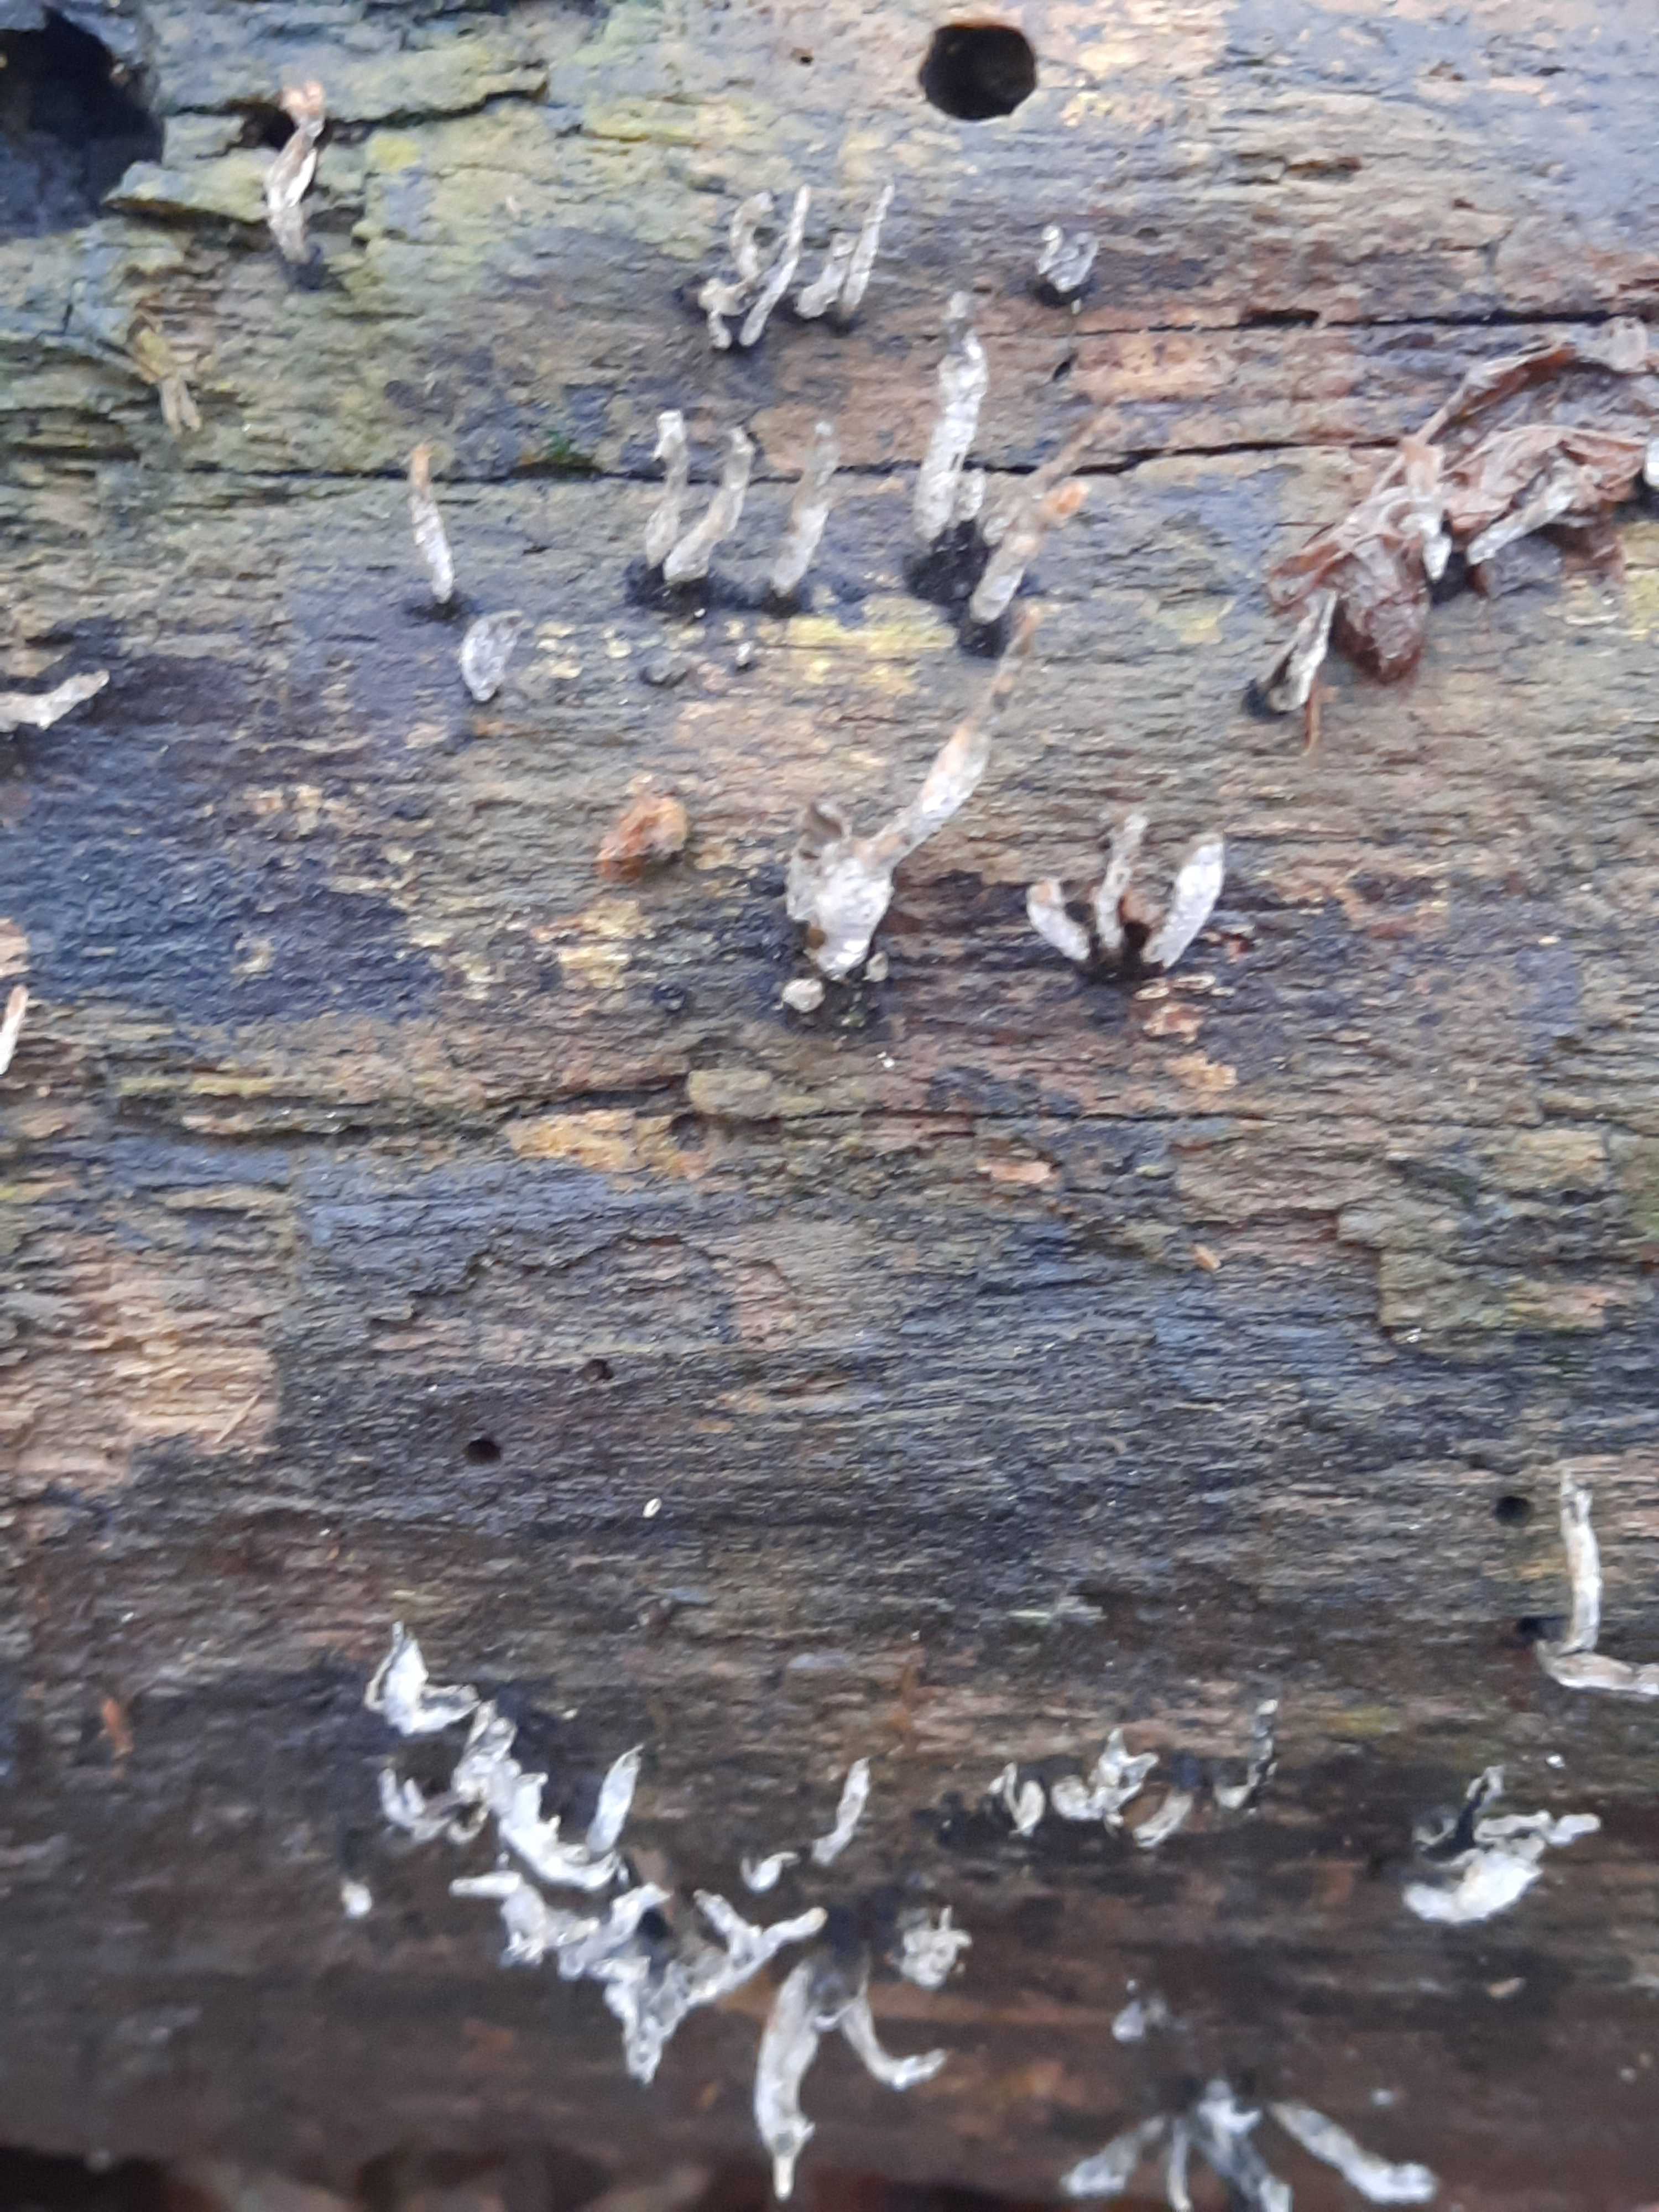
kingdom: Fungi
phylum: Ascomycota
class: Sordariomycetes
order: Xylariales
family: Xylariaceae
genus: Xylaria
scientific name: Xylaria hypoxylon
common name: grenet stødsvamp
